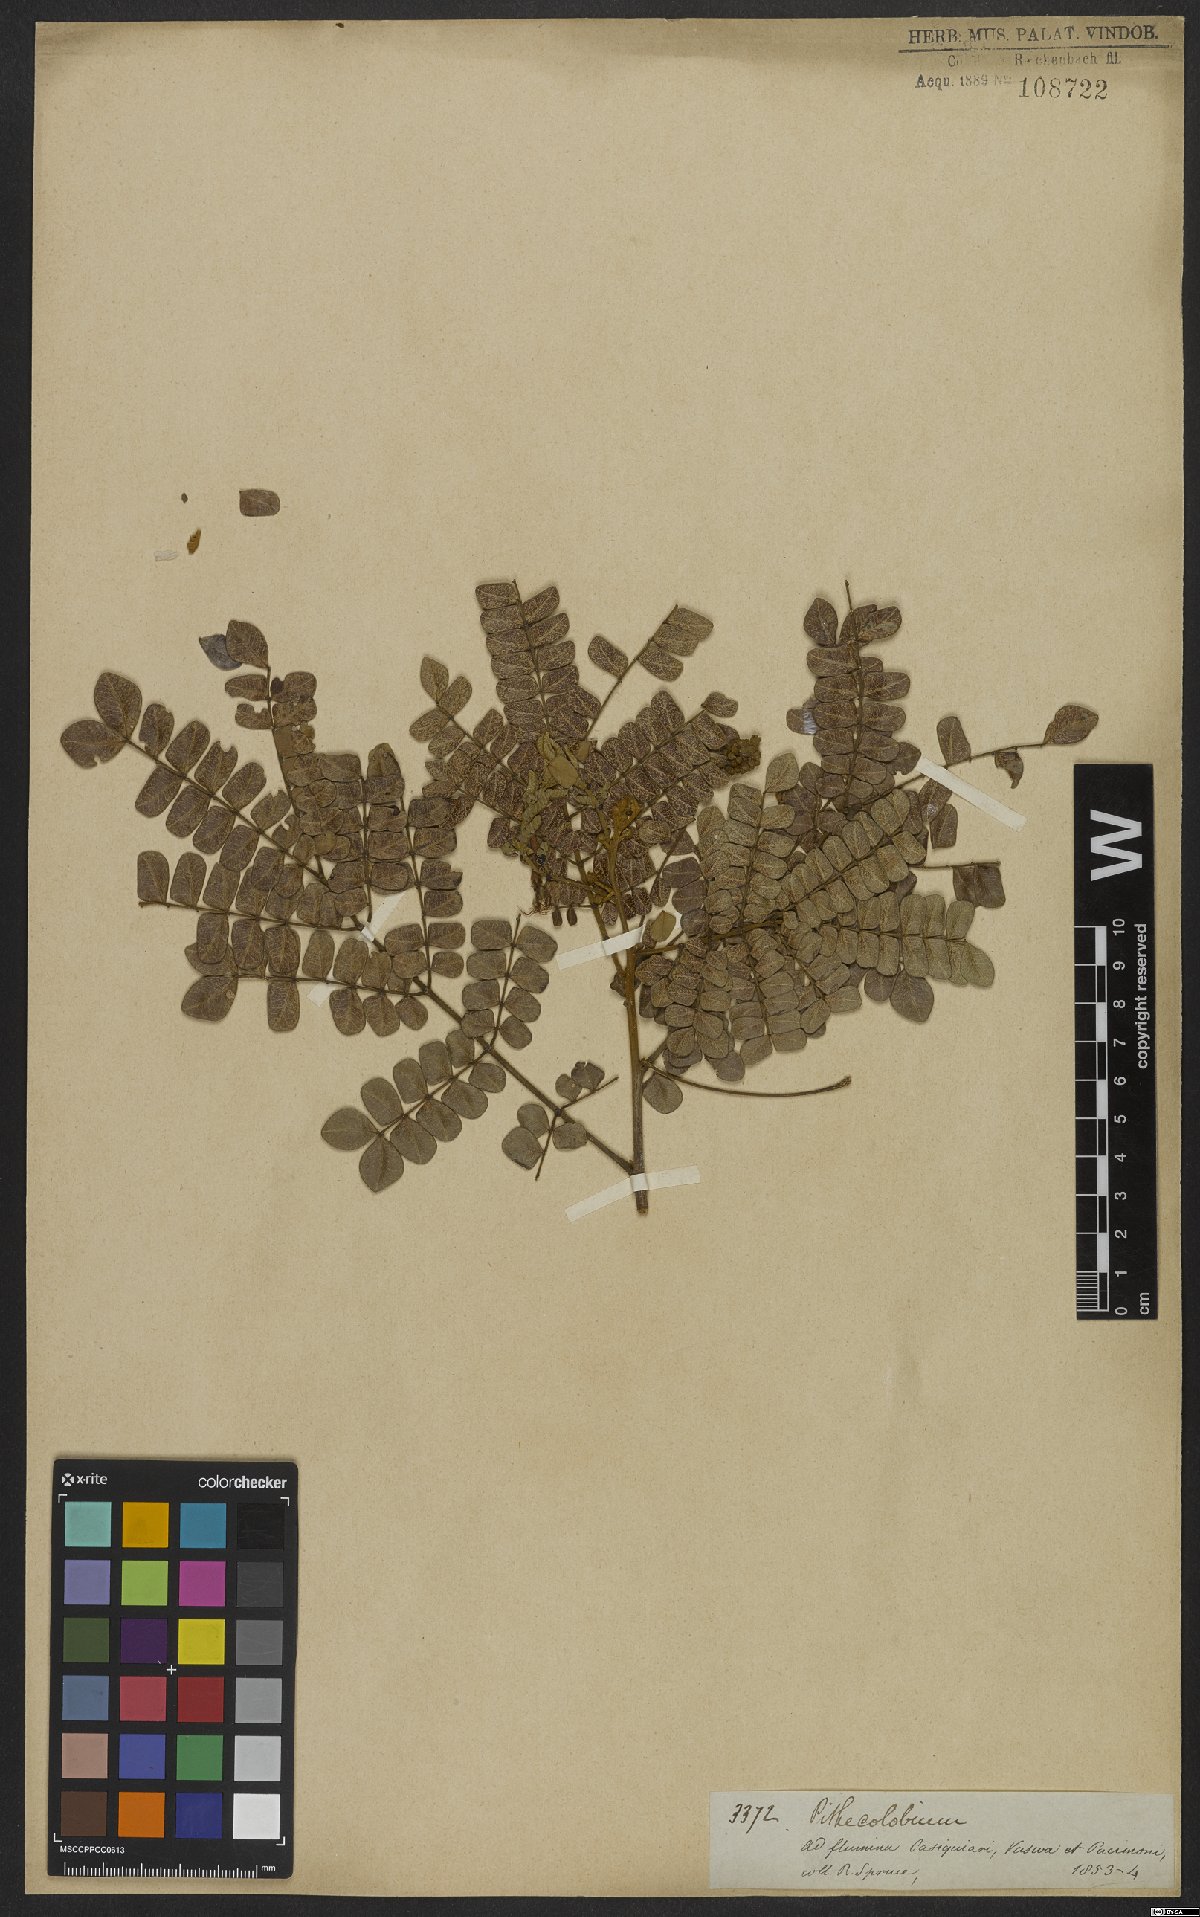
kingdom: Plantae
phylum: Tracheophyta
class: Magnoliopsida
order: Fabales
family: Fabaceae
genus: Jupunba
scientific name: Jupunba trapezifolia
